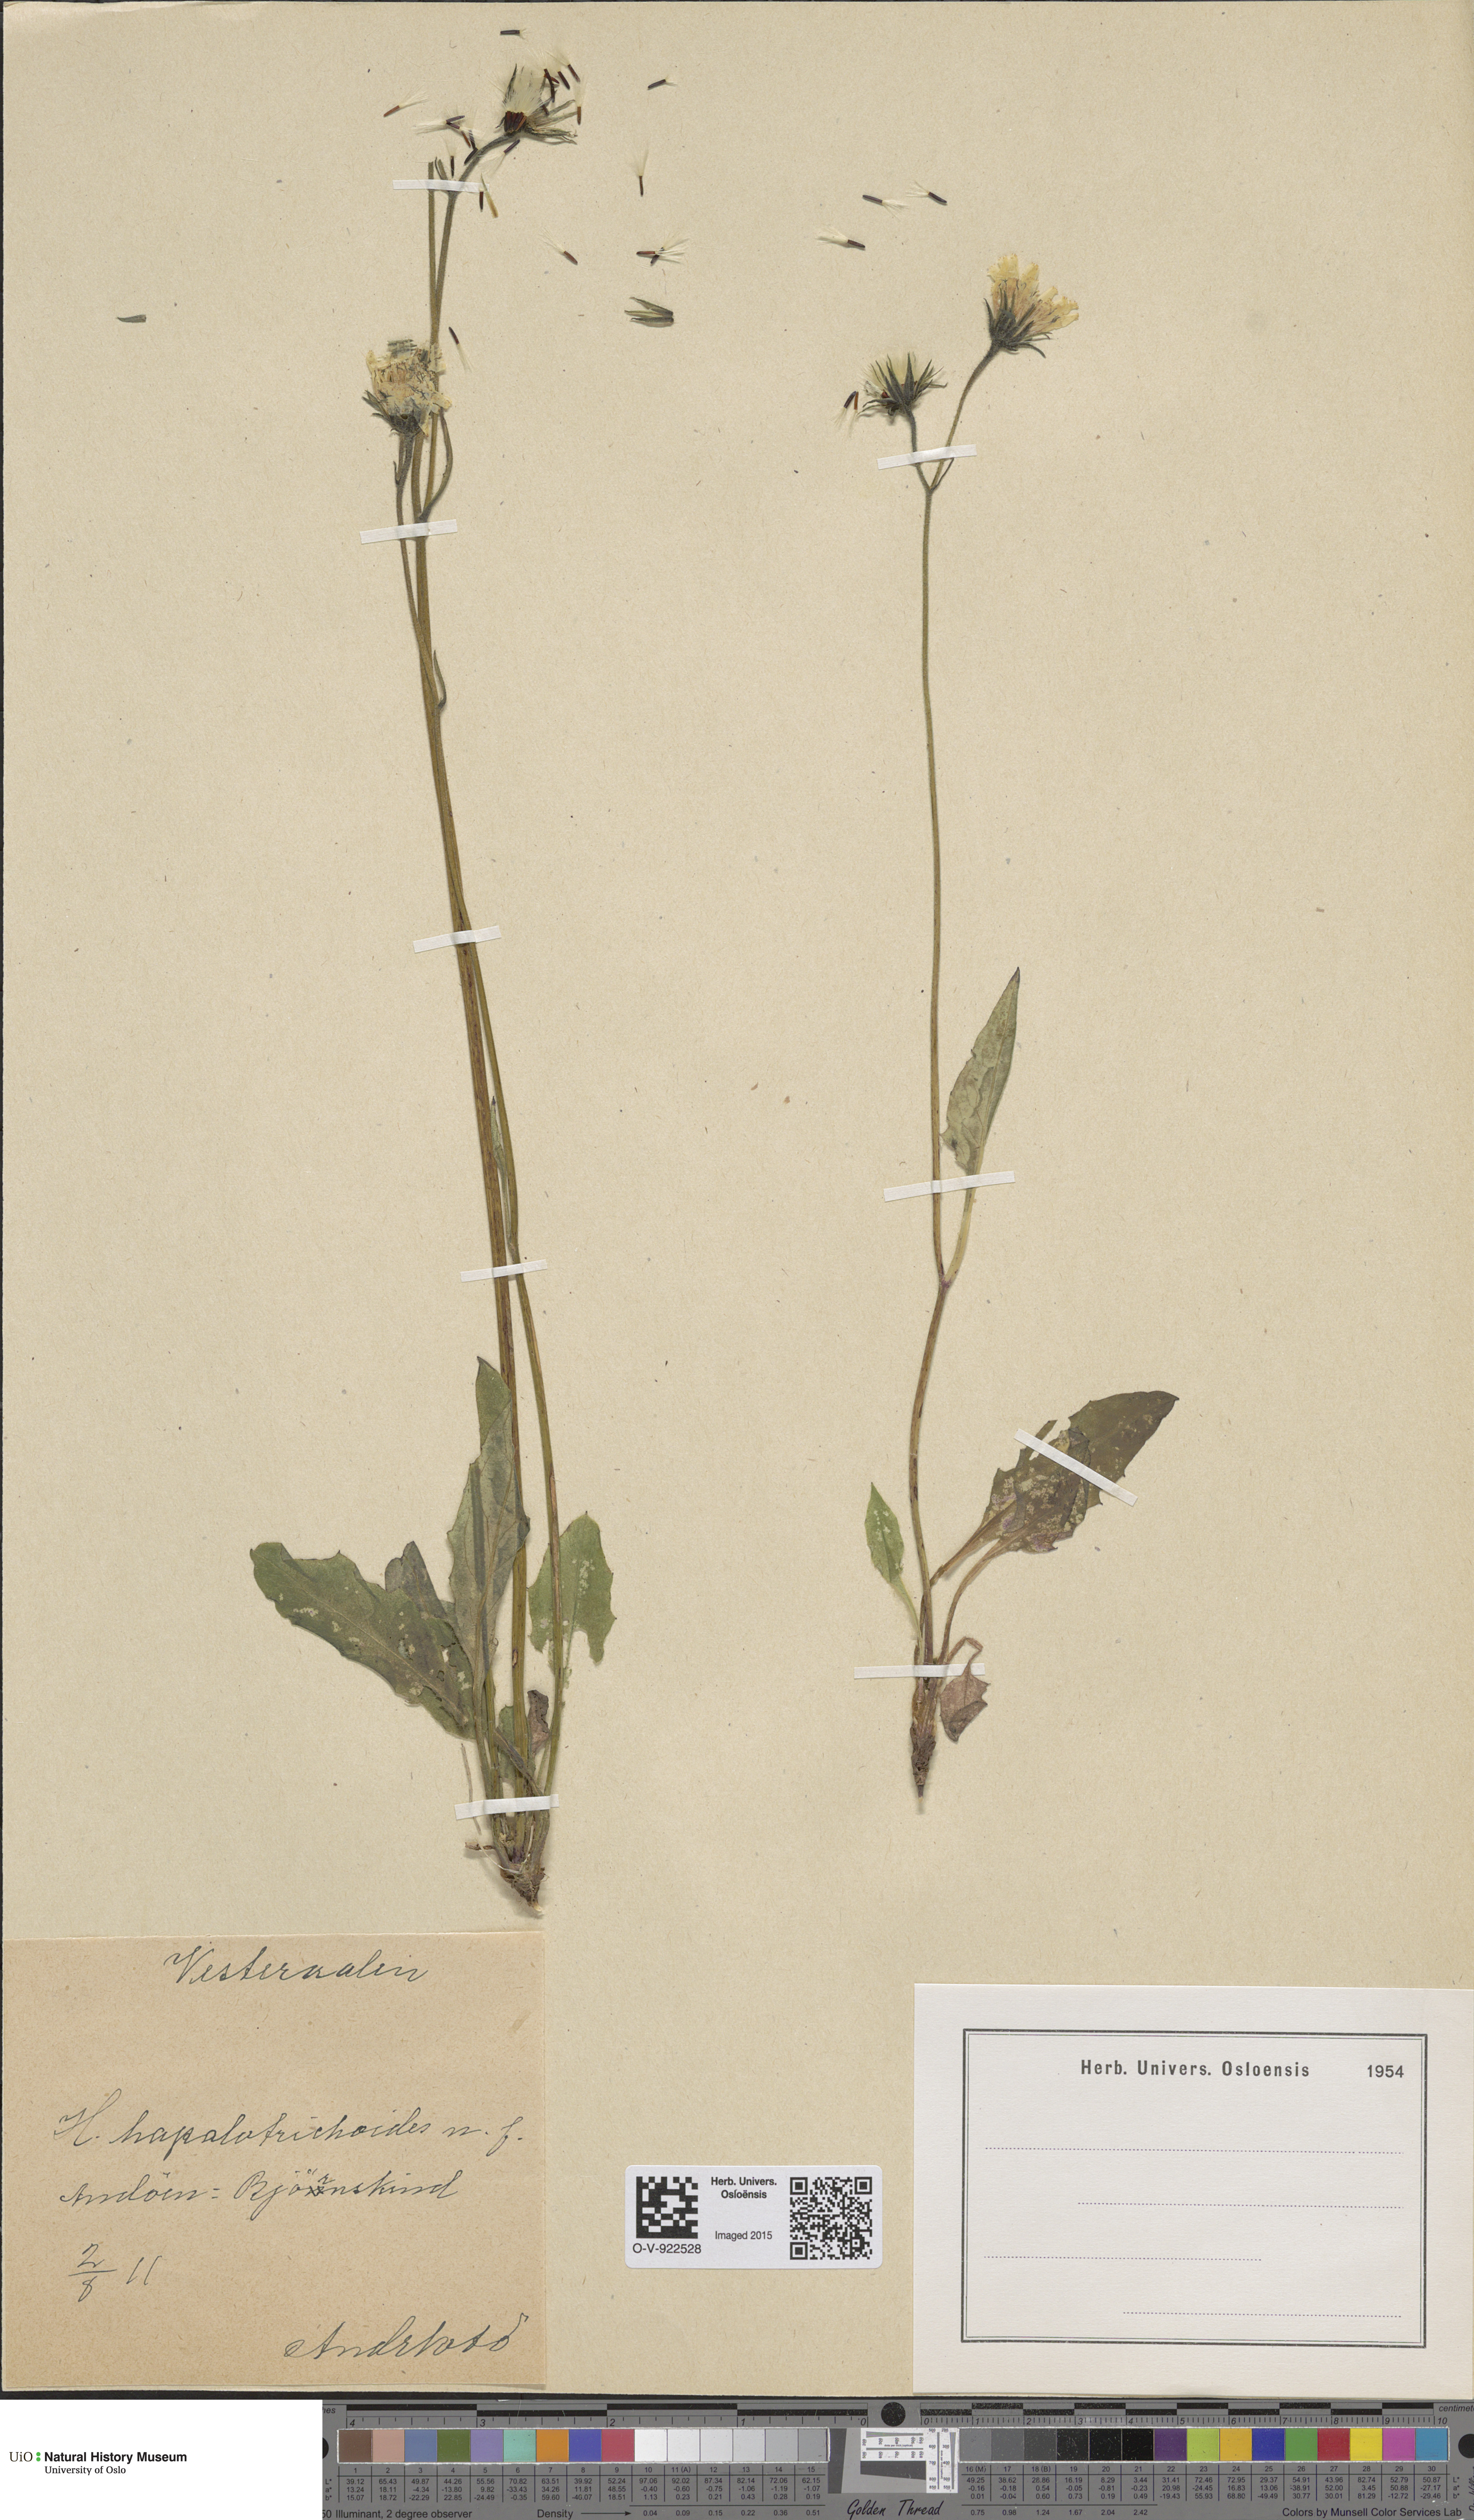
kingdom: Plantae
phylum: Tracheophyta
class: Magnoliopsida
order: Asterales
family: Asteraceae
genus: Hieracium
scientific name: Hieracium
